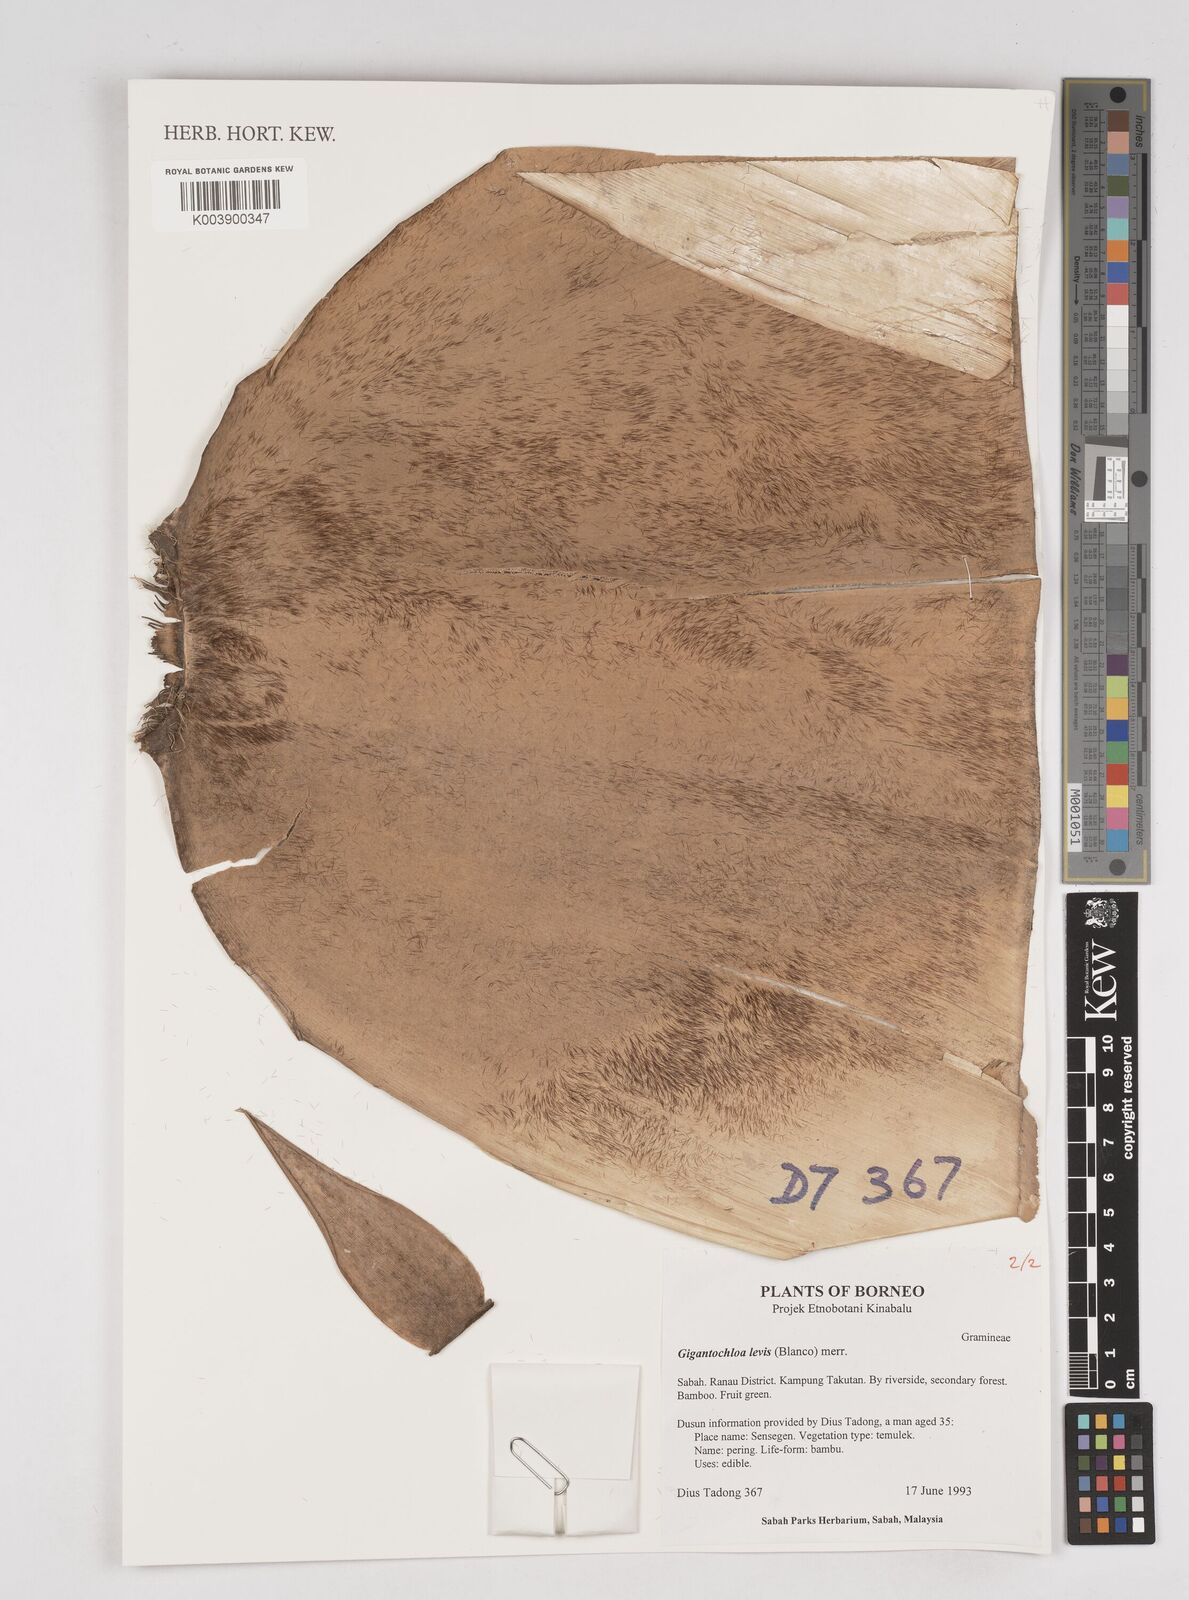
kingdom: Plantae
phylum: Tracheophyta
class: Liliopsida
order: Poales
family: Poaceae
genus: Gigantochloa
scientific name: Gigantochloa levis
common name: Smooth-shoot gigantochloa
